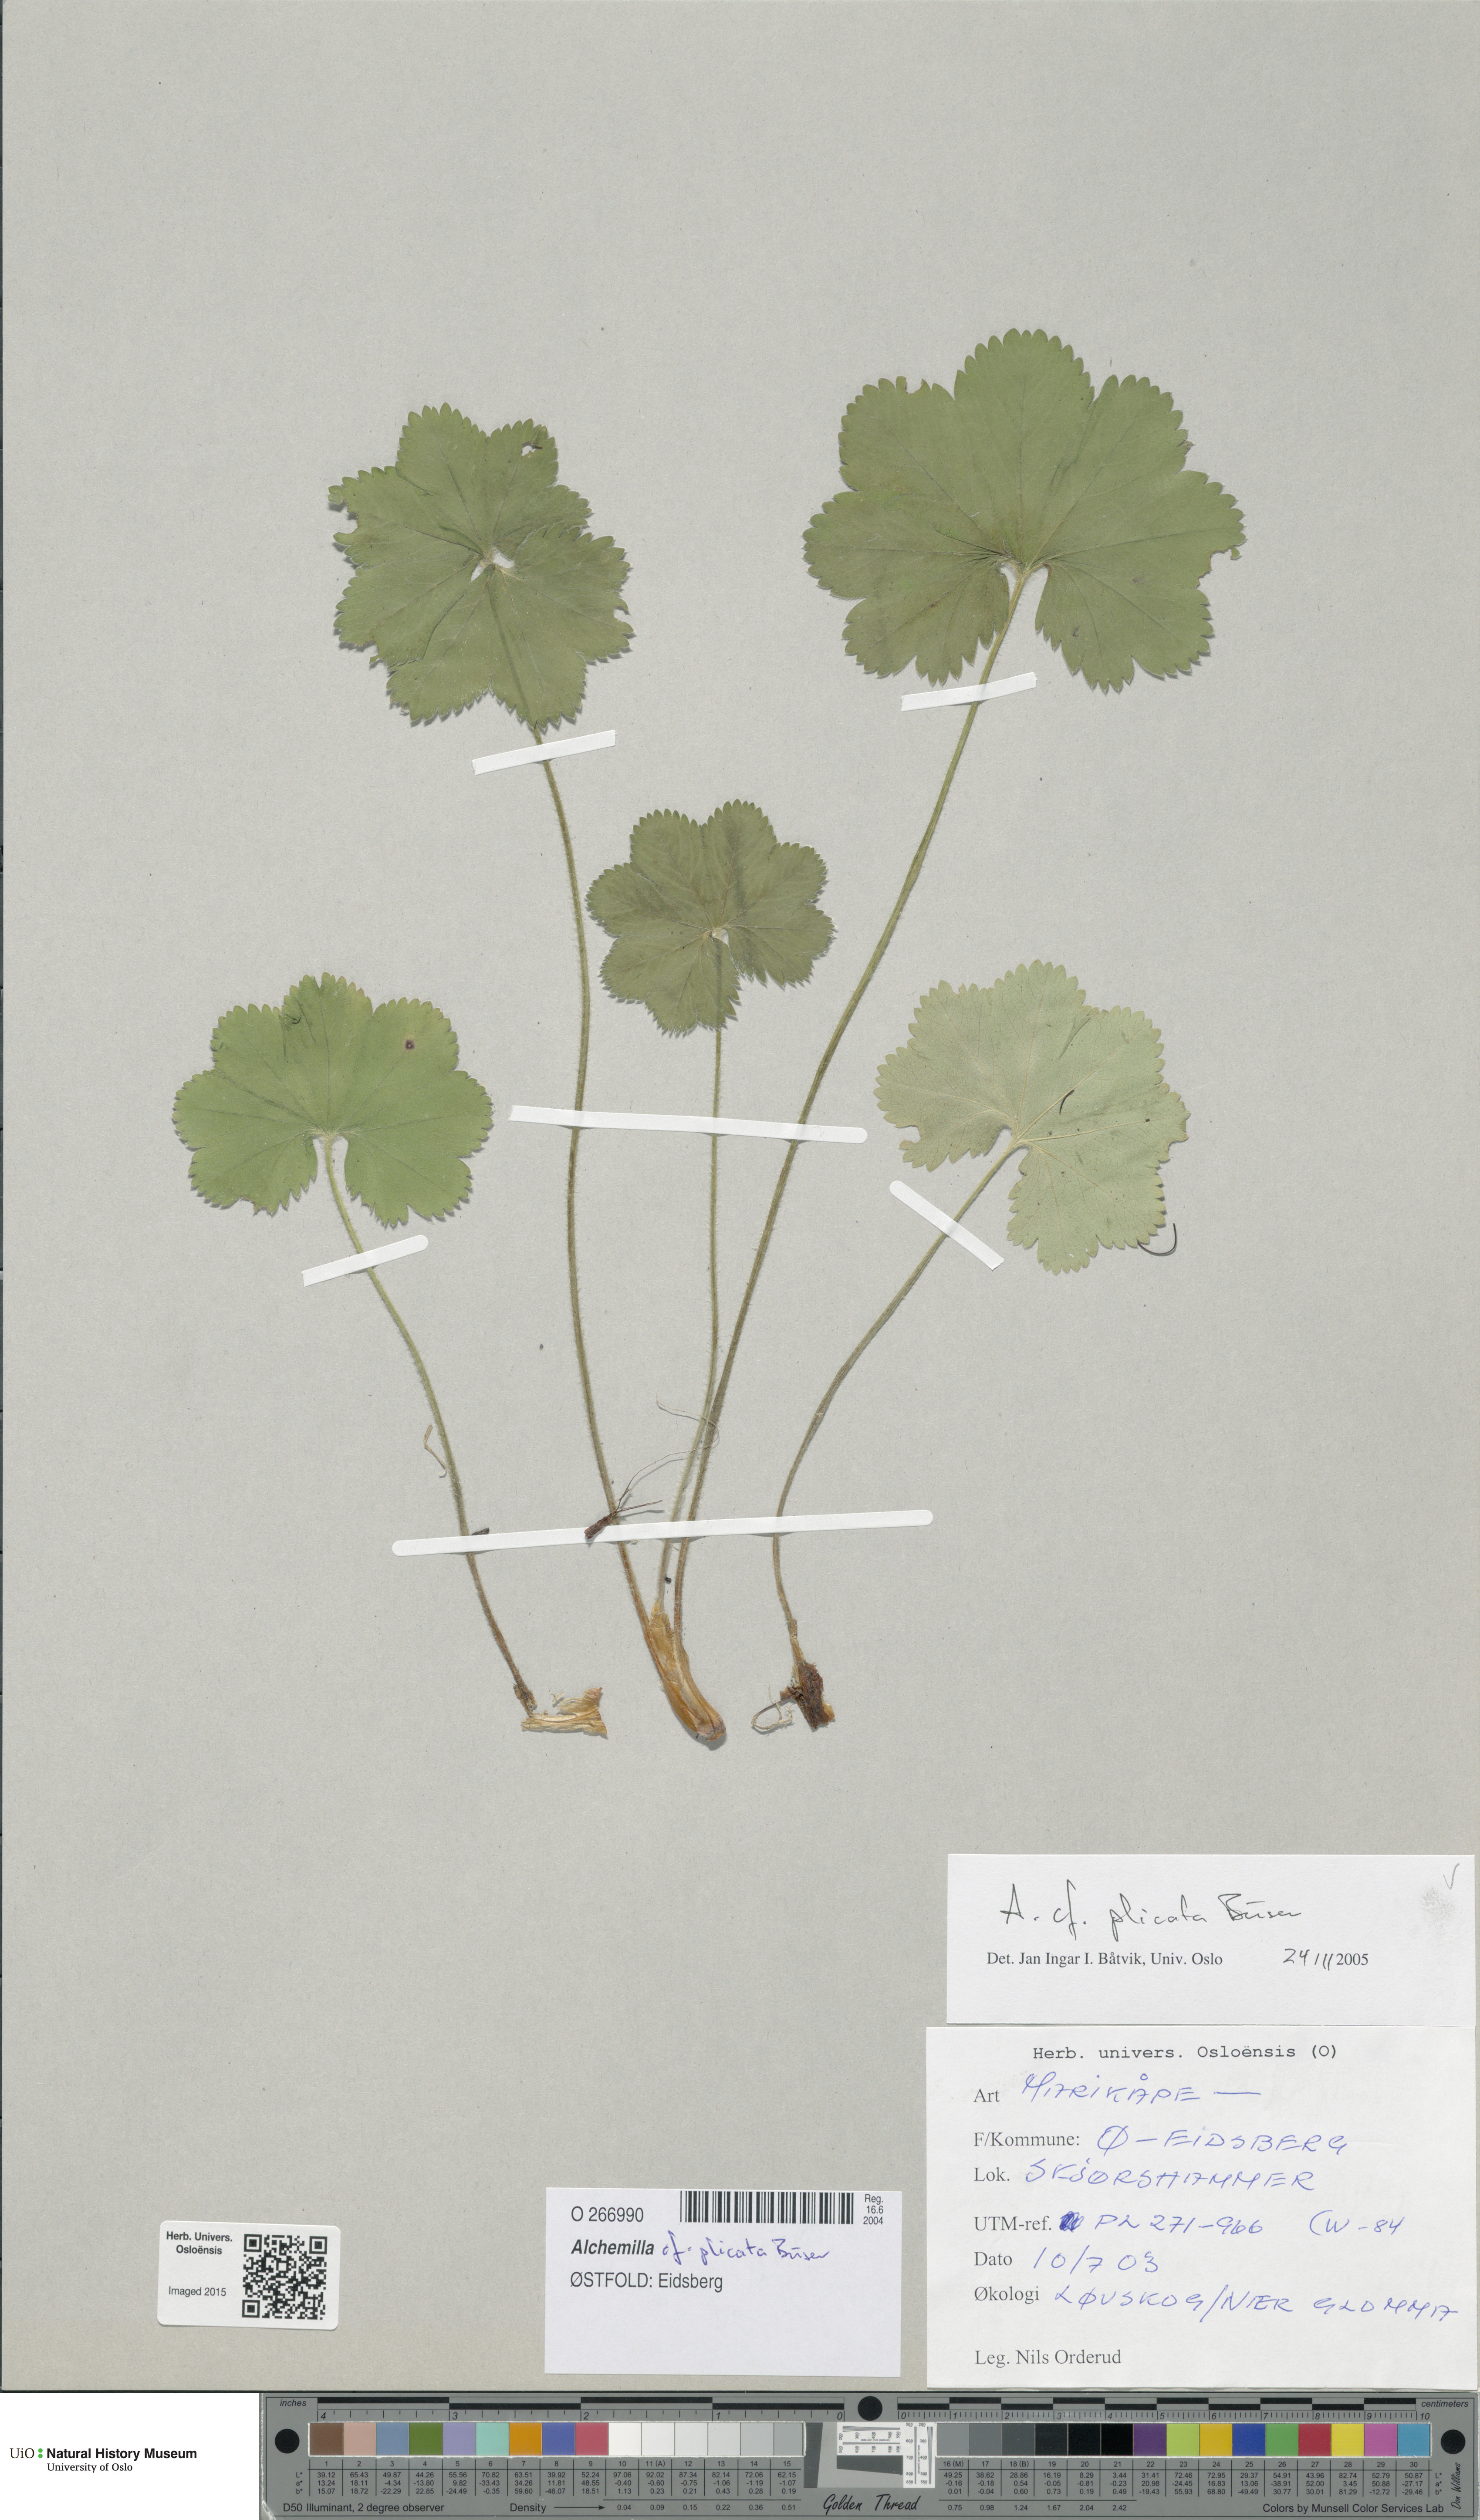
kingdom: Plantae
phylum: Tracheophyta
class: Magnoliopsida
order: Rosales
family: Rosaceae
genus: Alchemilla
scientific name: Alchemilla plicata
